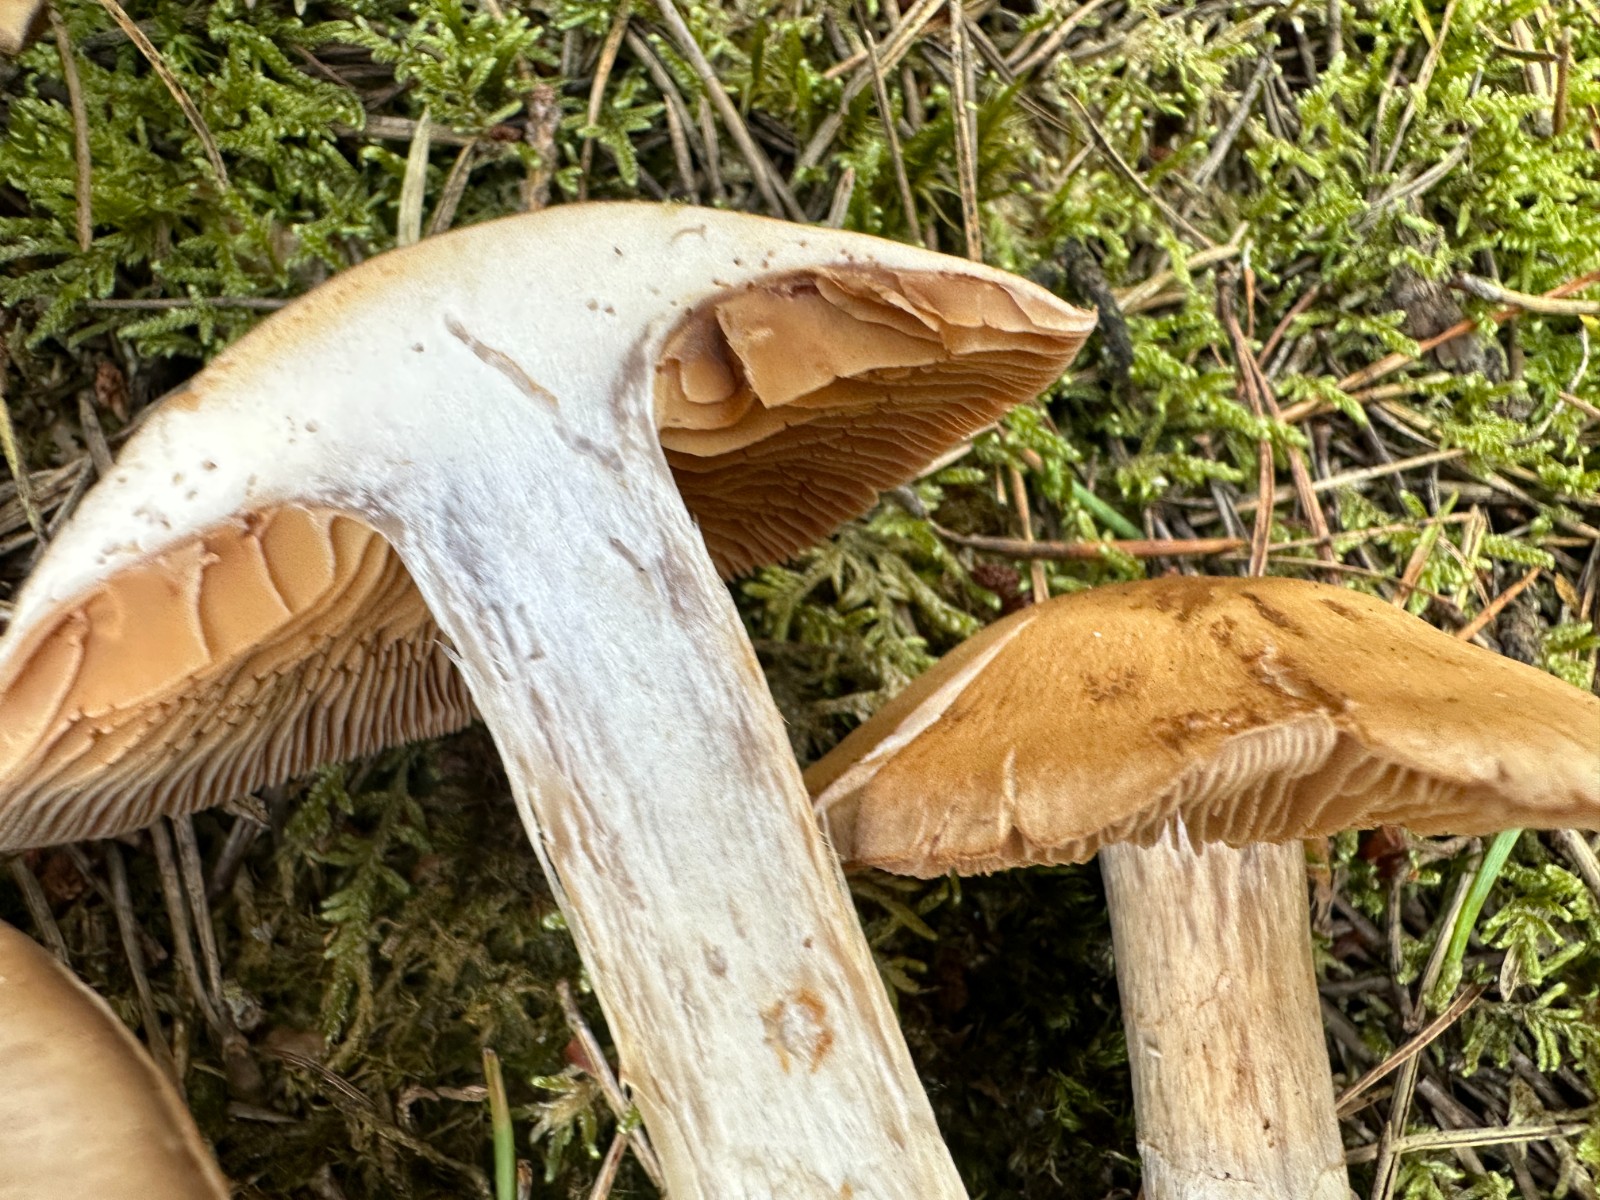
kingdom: Fungi
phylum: Basidiomycota
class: Agaricomycetes
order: Agaricales
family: Cortinariaceae
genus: Cortinarius
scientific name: Cortinarius quarciticus
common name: kvarts-slørhat
